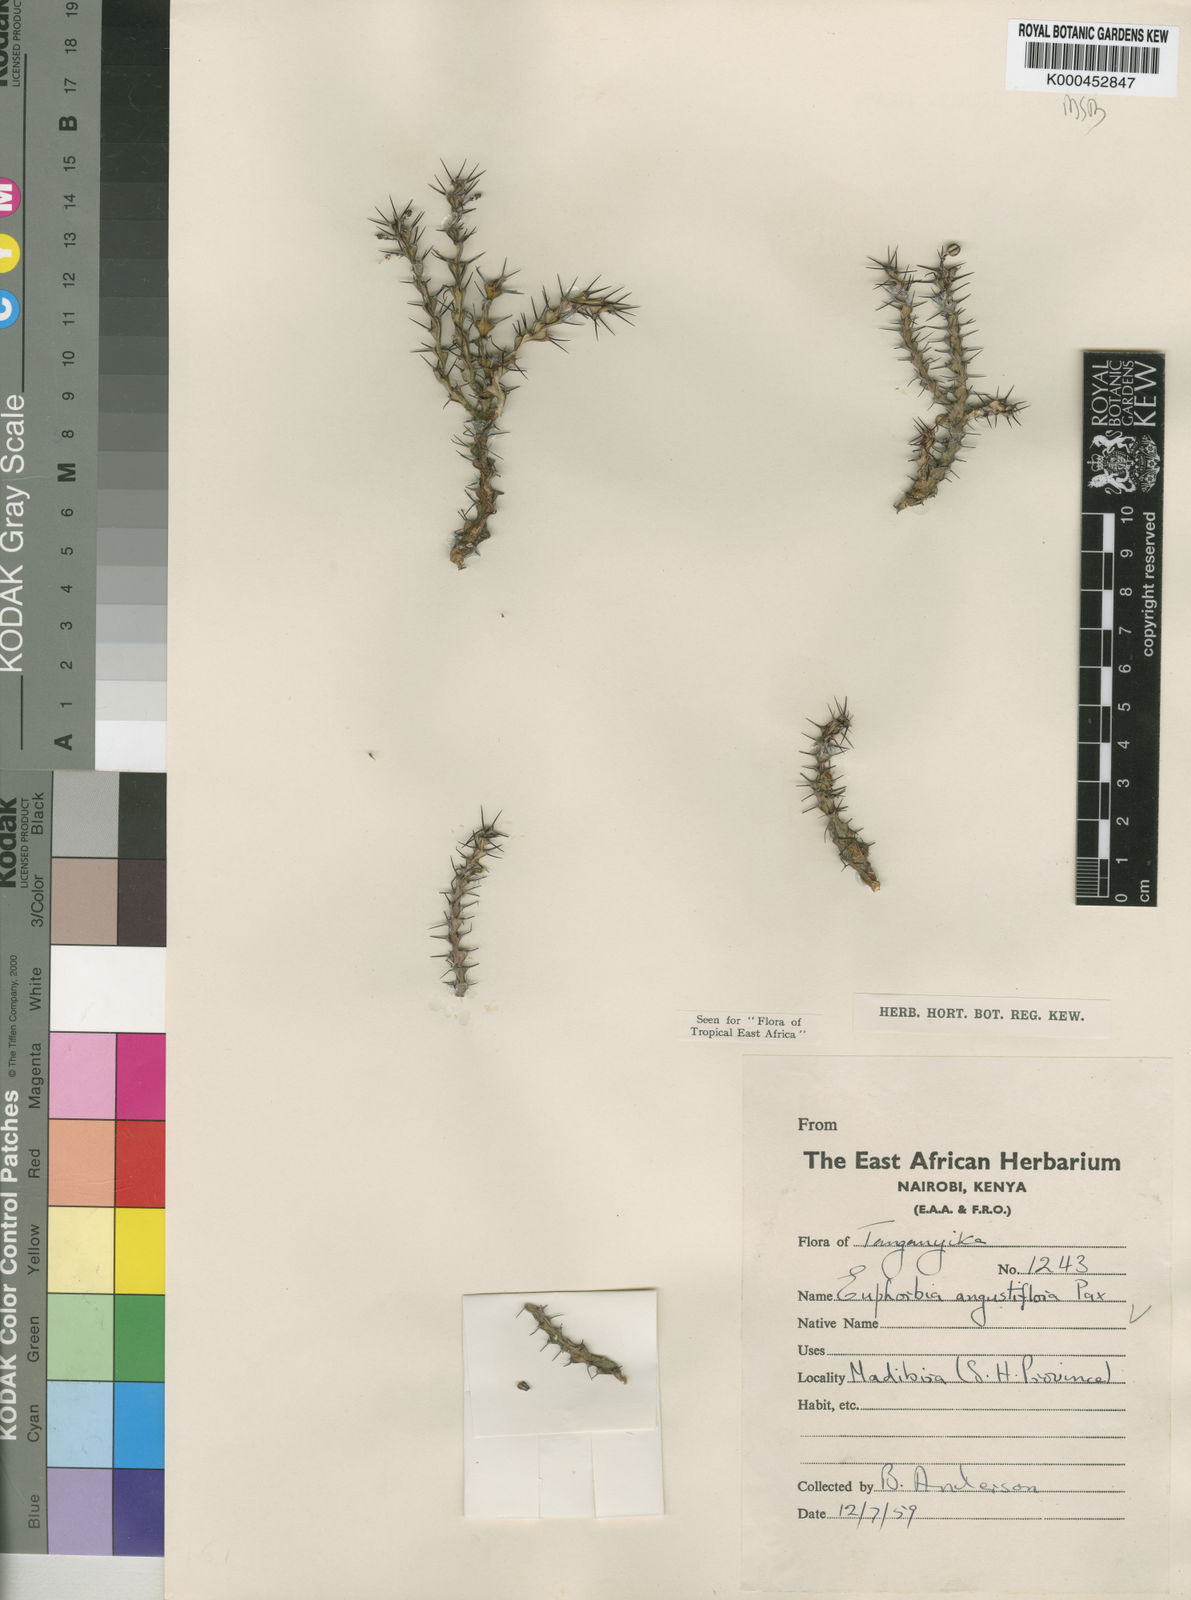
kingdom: Plantae
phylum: Tracheophyta
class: Magnoliopsida
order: Malpighiales
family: Euphorbiaceae
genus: Euphorbia
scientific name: Euphorbia angustiflora
